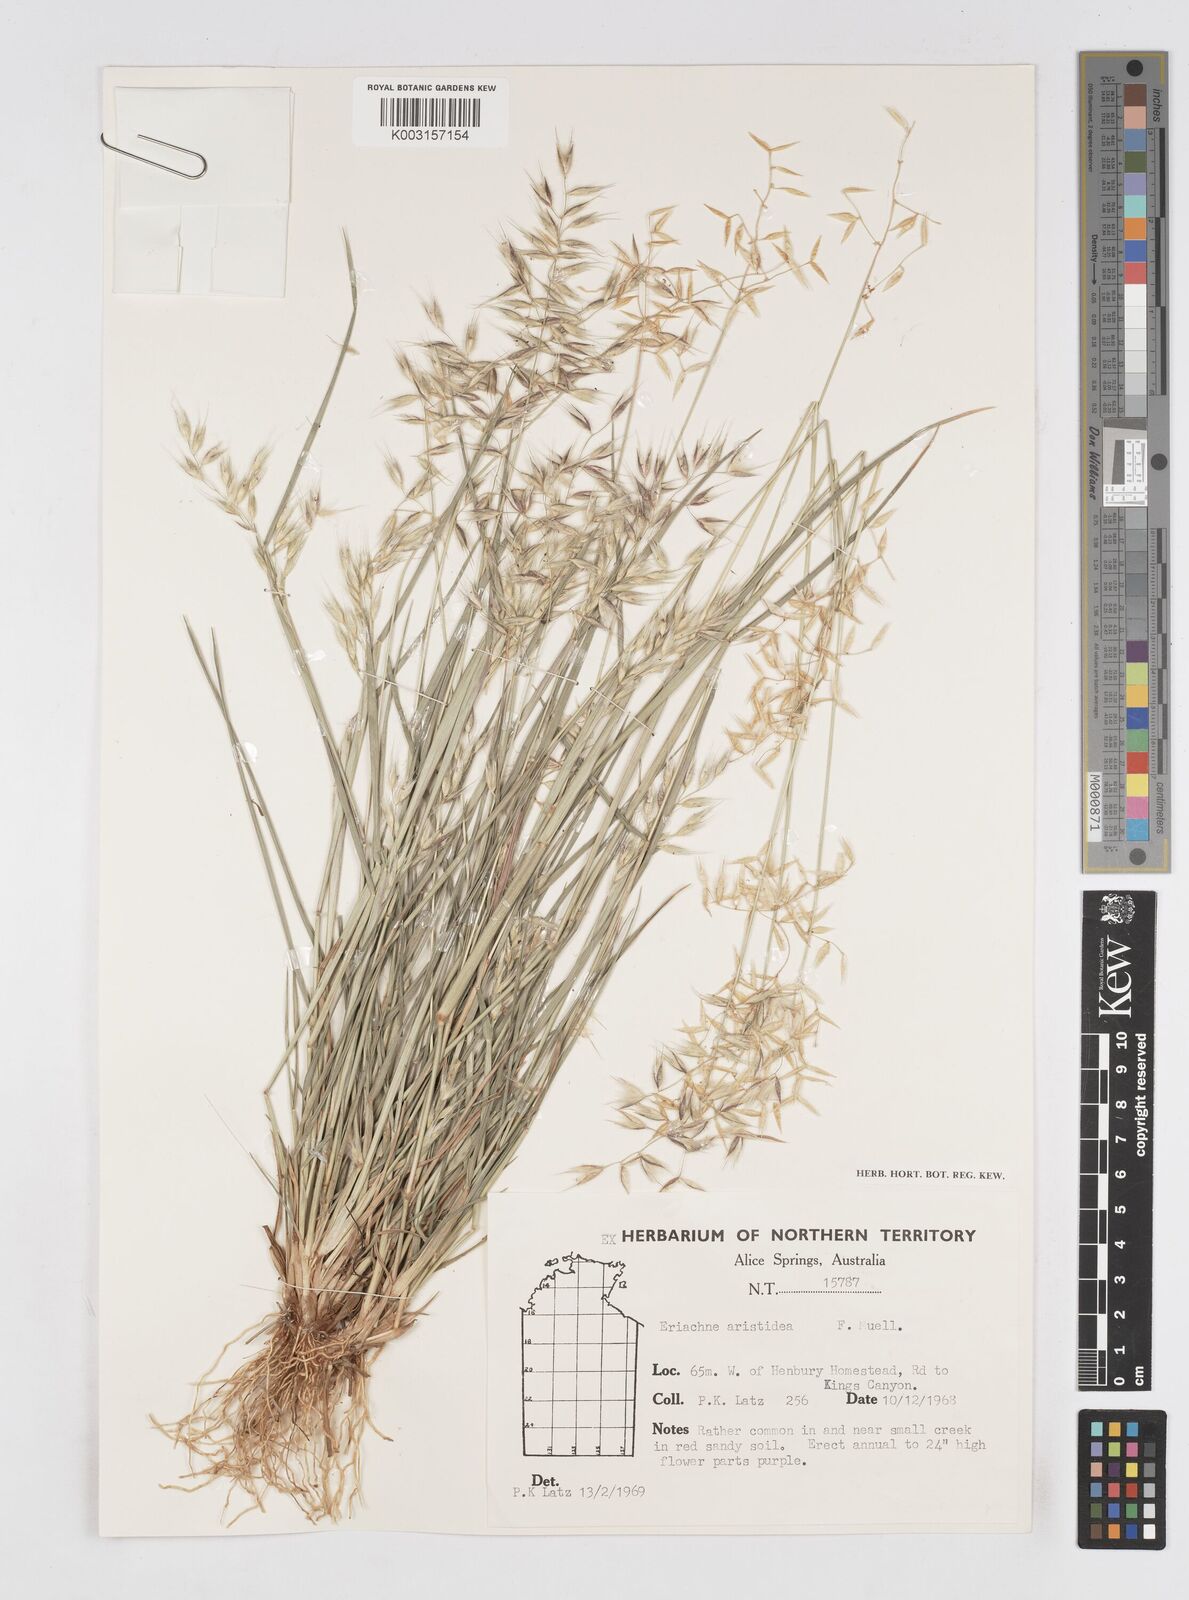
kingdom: Plantae
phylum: Tracheophyta
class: Liliopsida
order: Poales
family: Poaceae
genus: Eriachne
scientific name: Eriachne aristidea
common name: Three-awn wanderrie grass
